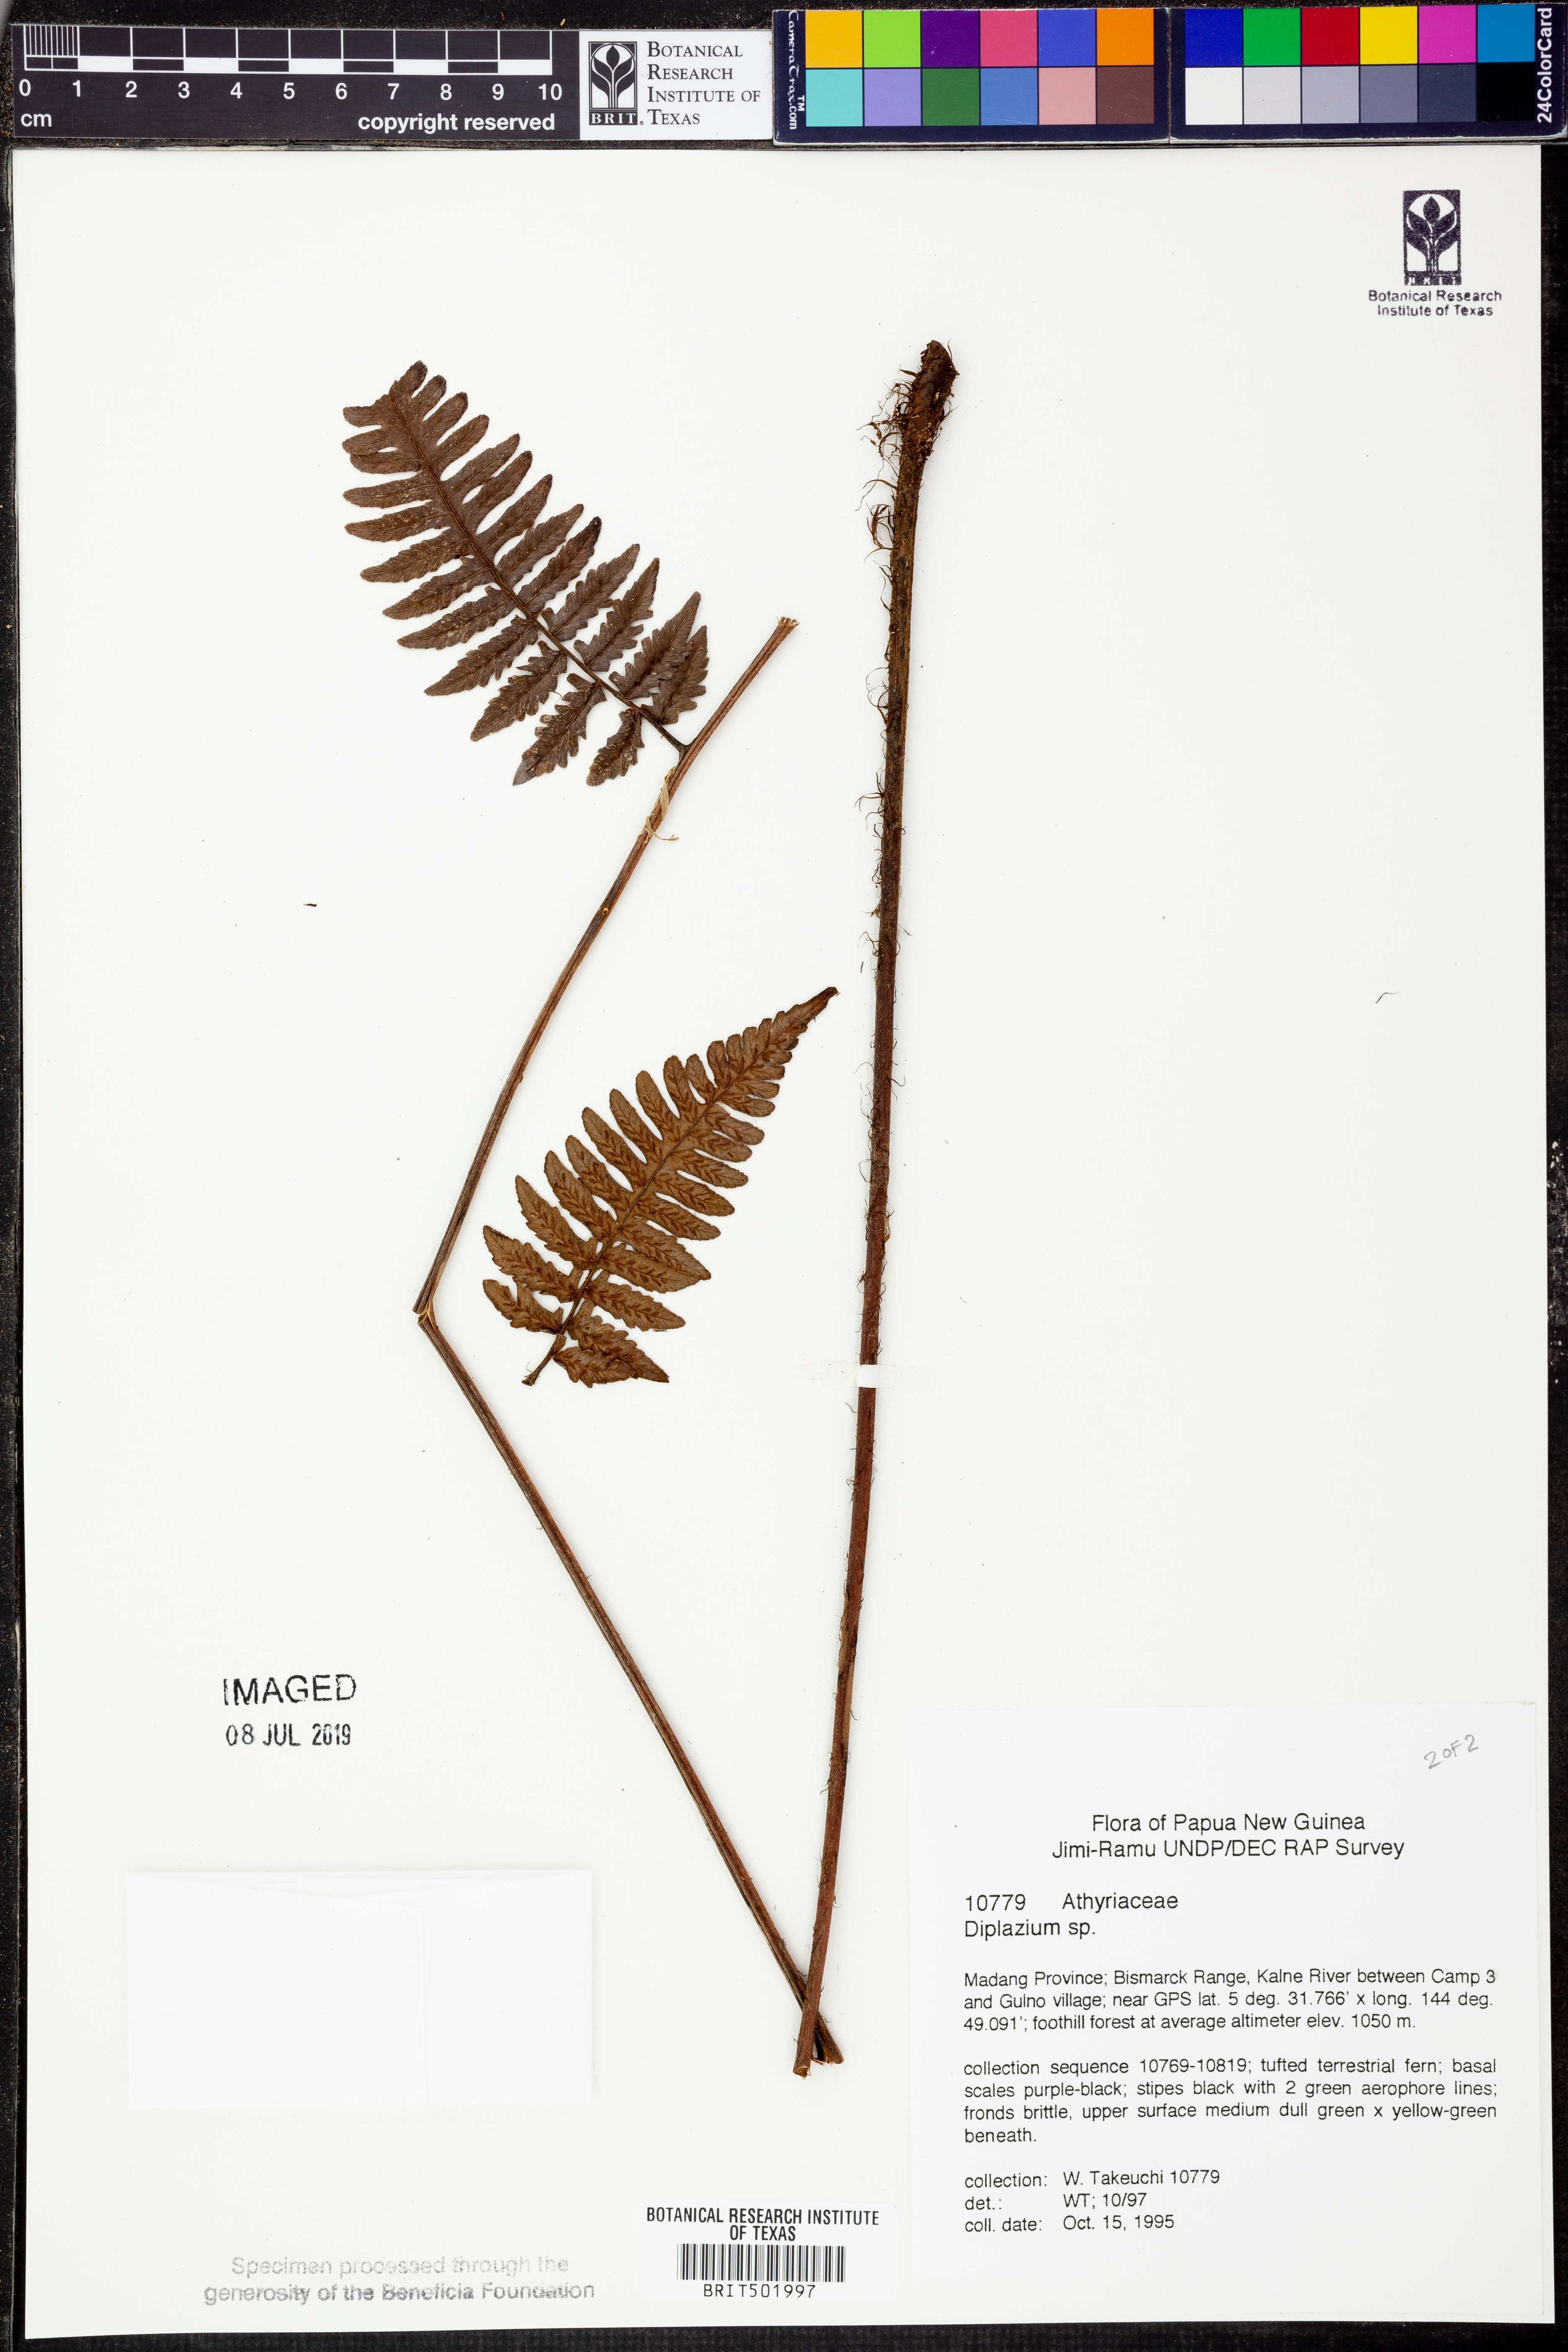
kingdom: Plantae
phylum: Tracheophyta
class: Polypodiopsida
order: Polypodiales
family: Athyriaceae
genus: Diplazium
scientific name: Diplazium
